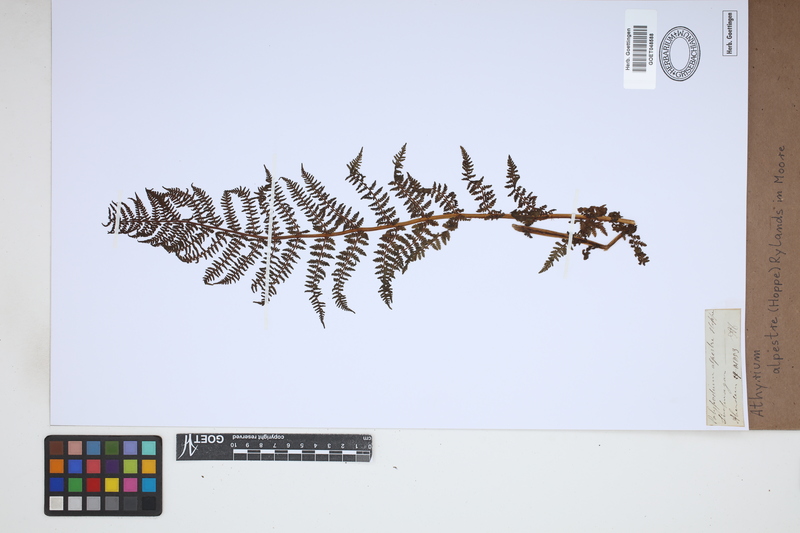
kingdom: Plantae
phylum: Tracheophyta
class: Polypodiopsida
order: Polypodiales
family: Athyriaceae
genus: Pseudathyrium
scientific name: Pseudathyrium alpestre
